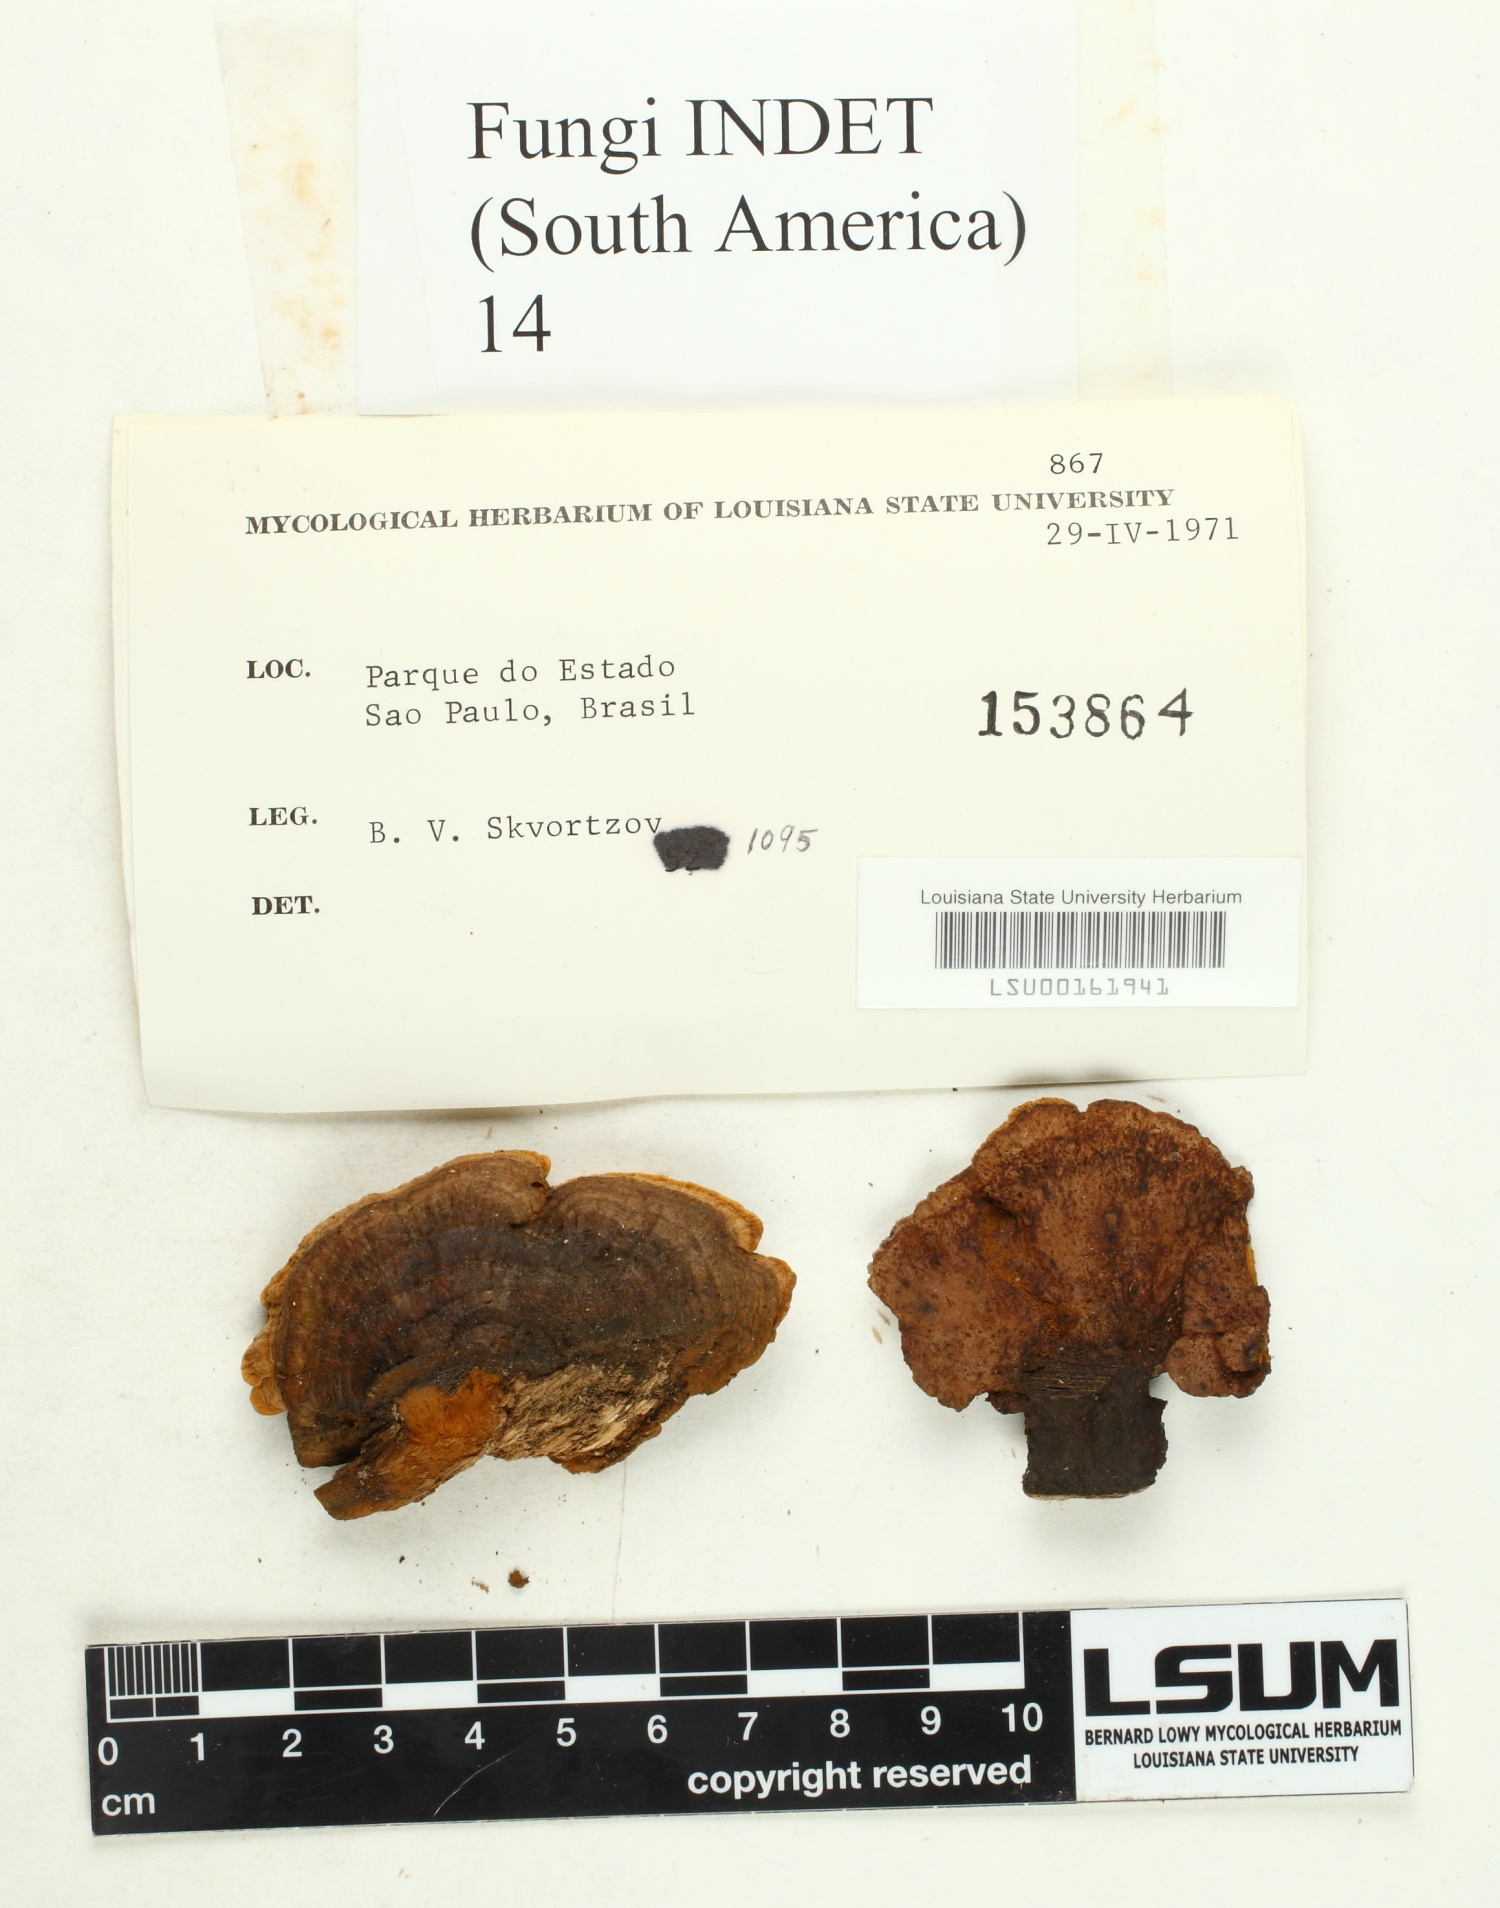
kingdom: Fungi
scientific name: Fungi
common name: Fungi
